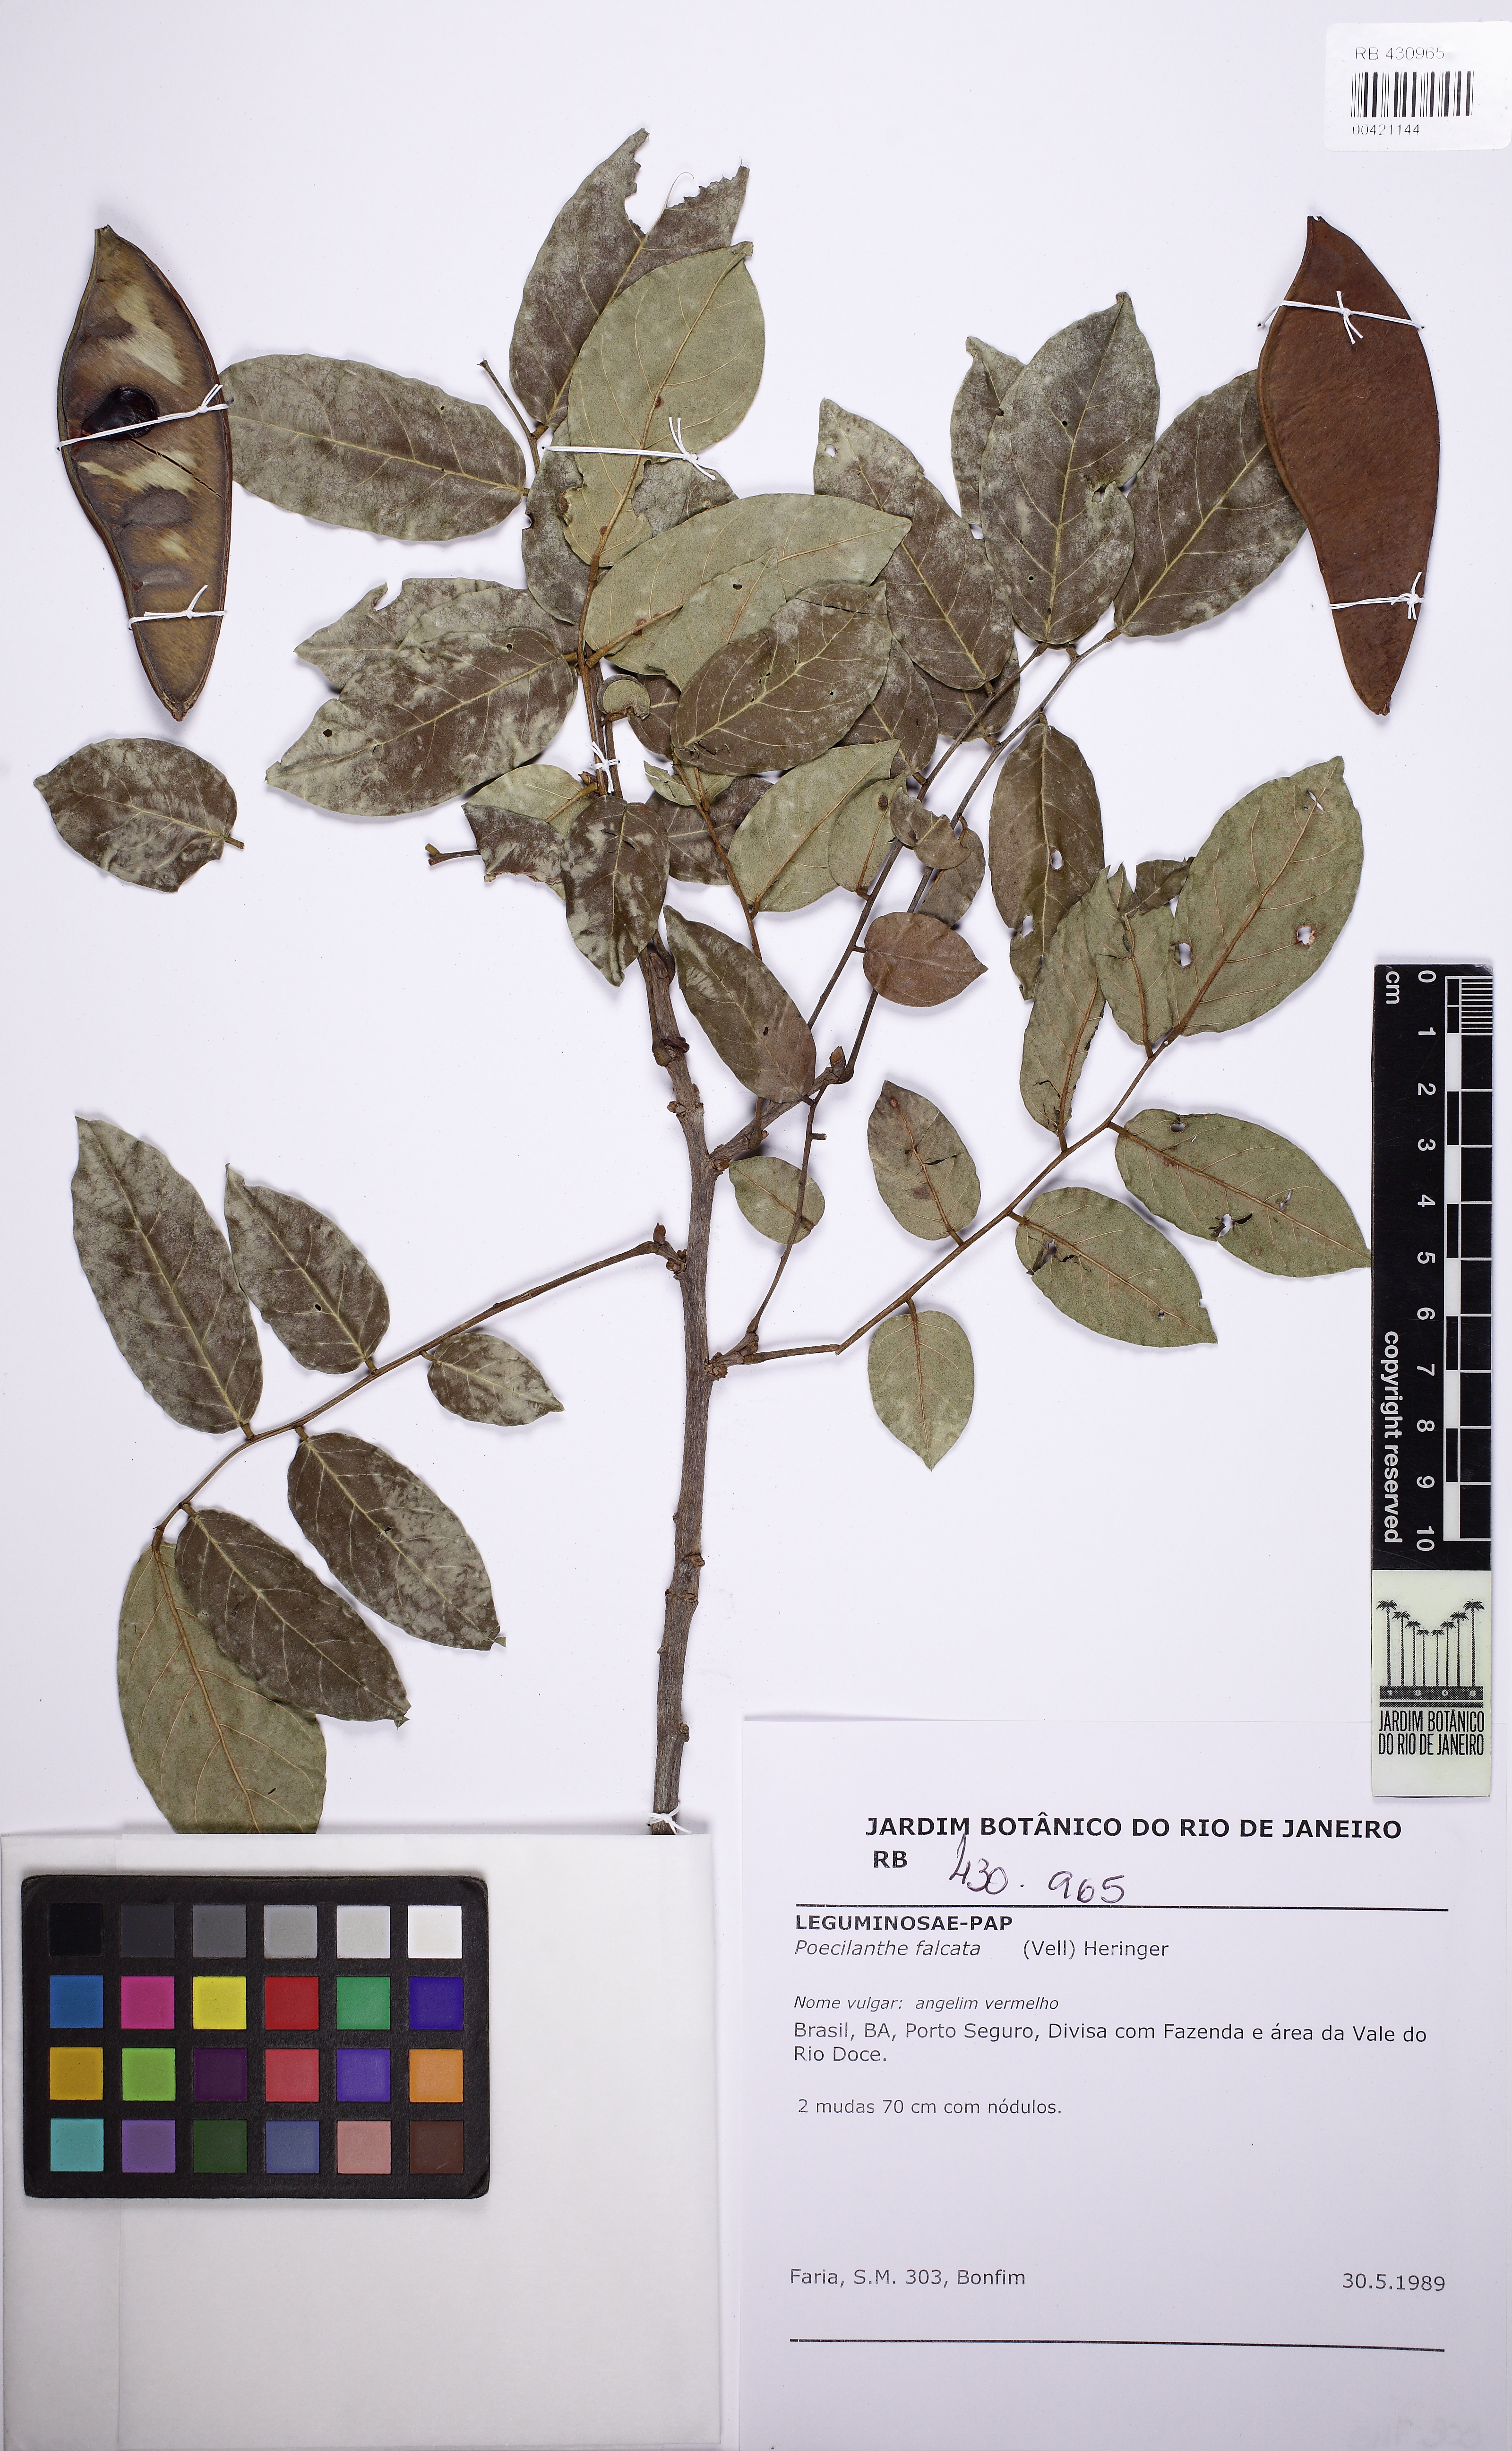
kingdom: Plantae
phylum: Tracheophyta
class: Magnoliopsida
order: Fabales
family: Fabaceae
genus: Poecilanthe
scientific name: Poecilanthe falcata
